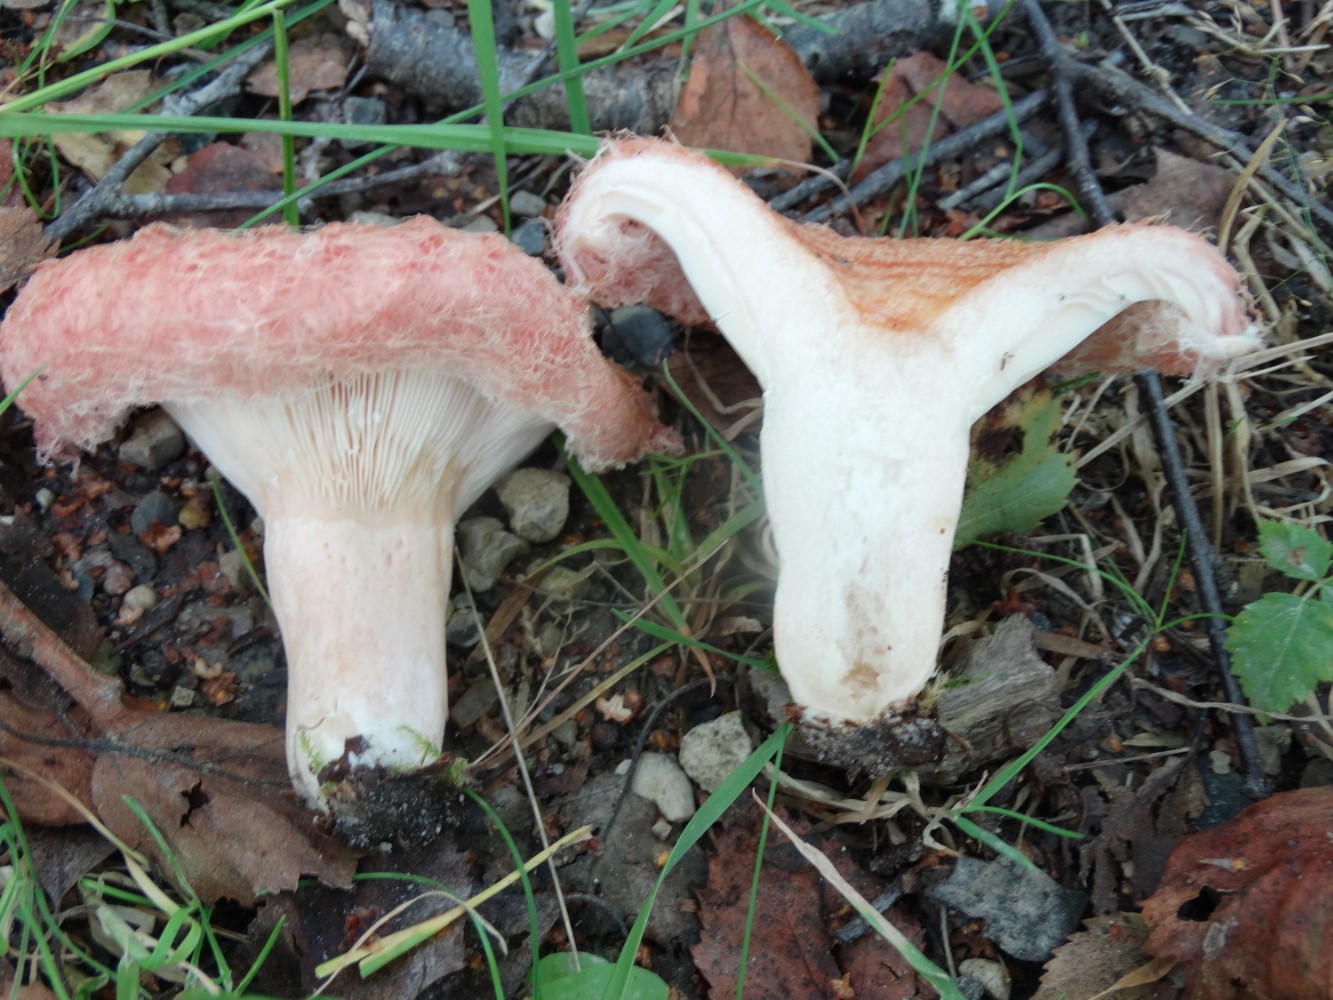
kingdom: Fungi
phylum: Basidiomycota
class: Agaricomycetes
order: Russulales
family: Russulaceae
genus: Lactarius
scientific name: Lactarius torminosus
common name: skægget mælkehat
